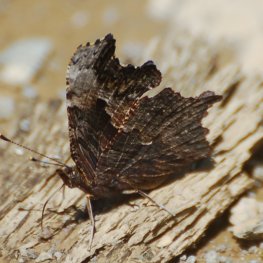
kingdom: Animalia
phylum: Arthropoda
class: Insecta
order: Lepidoptera
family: Nymphalidae
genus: Polygonia
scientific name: Polygonia progne
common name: Gray Comma
